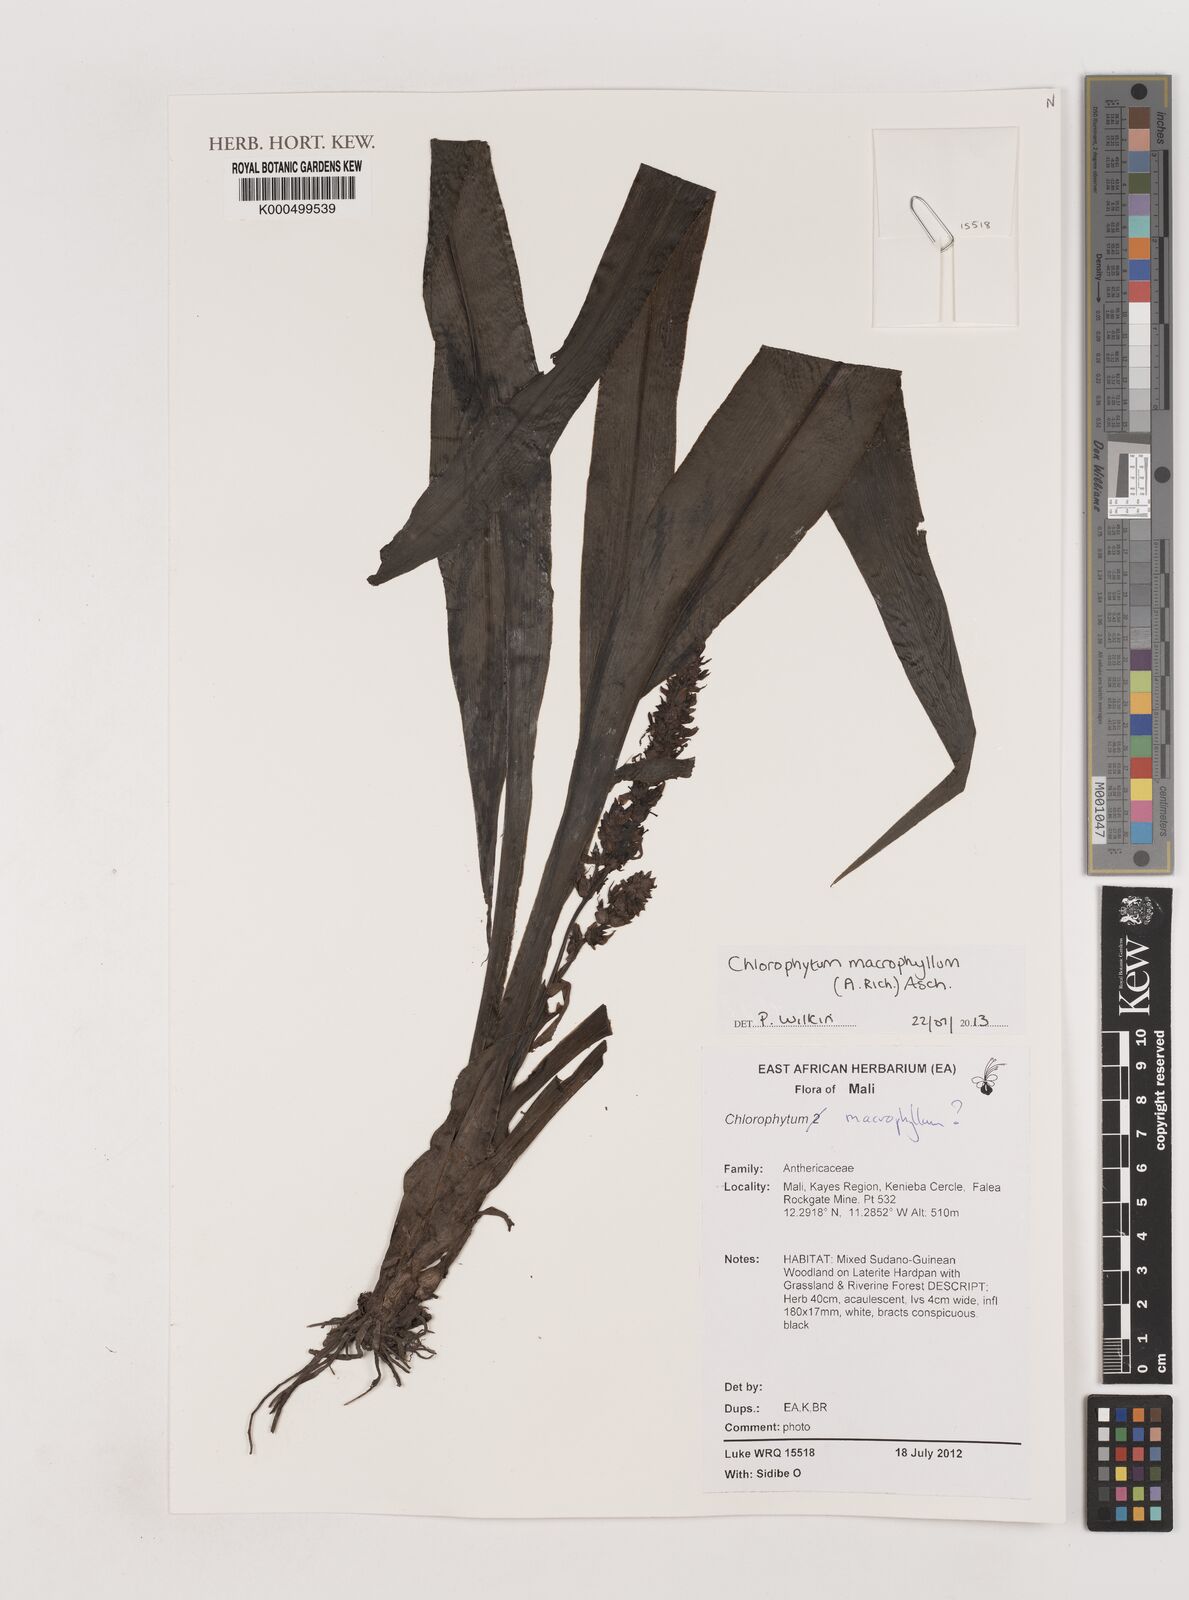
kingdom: Plantae
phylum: Tracheophyta
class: Liliopsida
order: Asparagales
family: Asparagaceae
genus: Chlorophytum
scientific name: Chlorophytum macrophyllum
